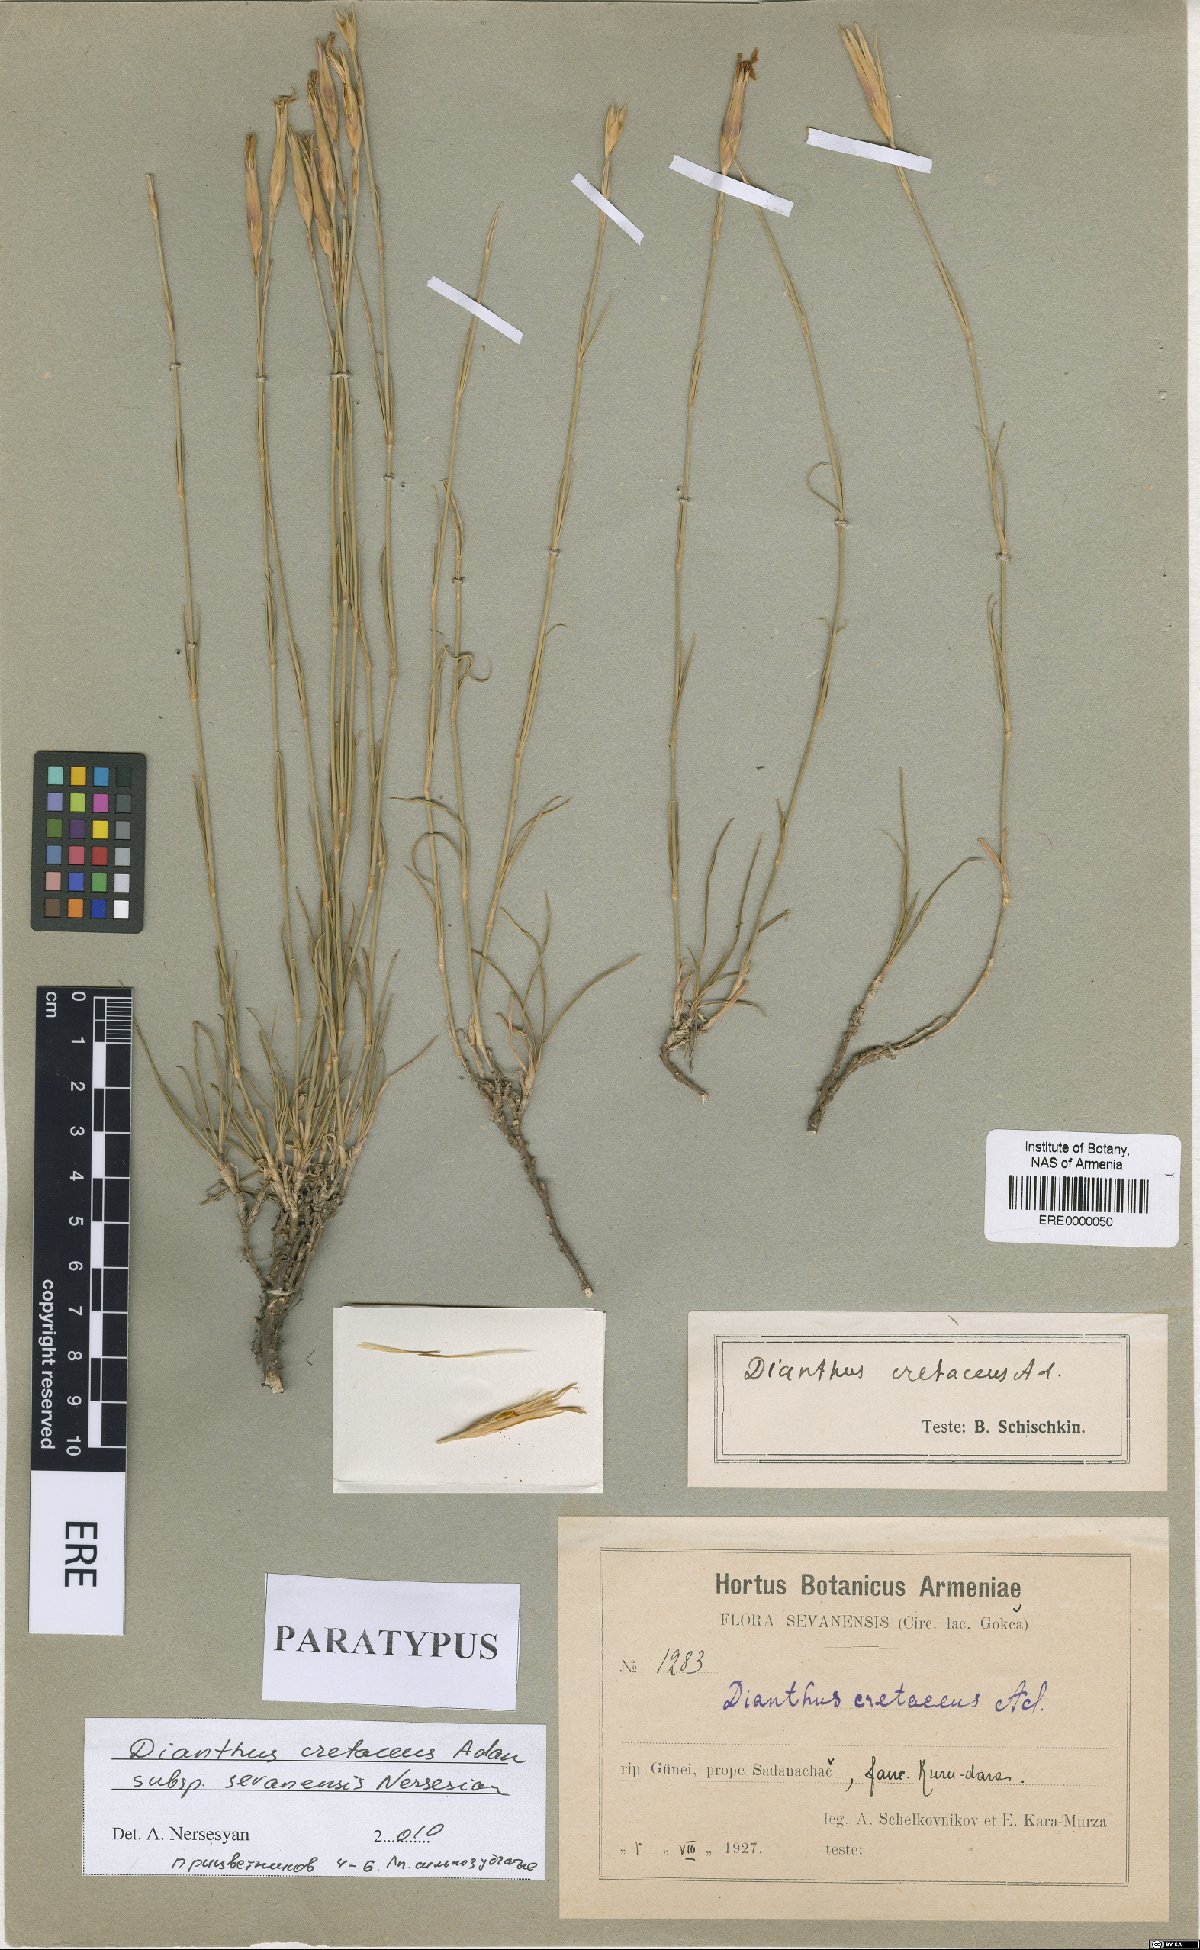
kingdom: Plantae
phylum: Tracheophyta
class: Magnoliopsida
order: Caryophyllales
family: Caryophyllaceae
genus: Dianthus
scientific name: Dianthus cretaceus
